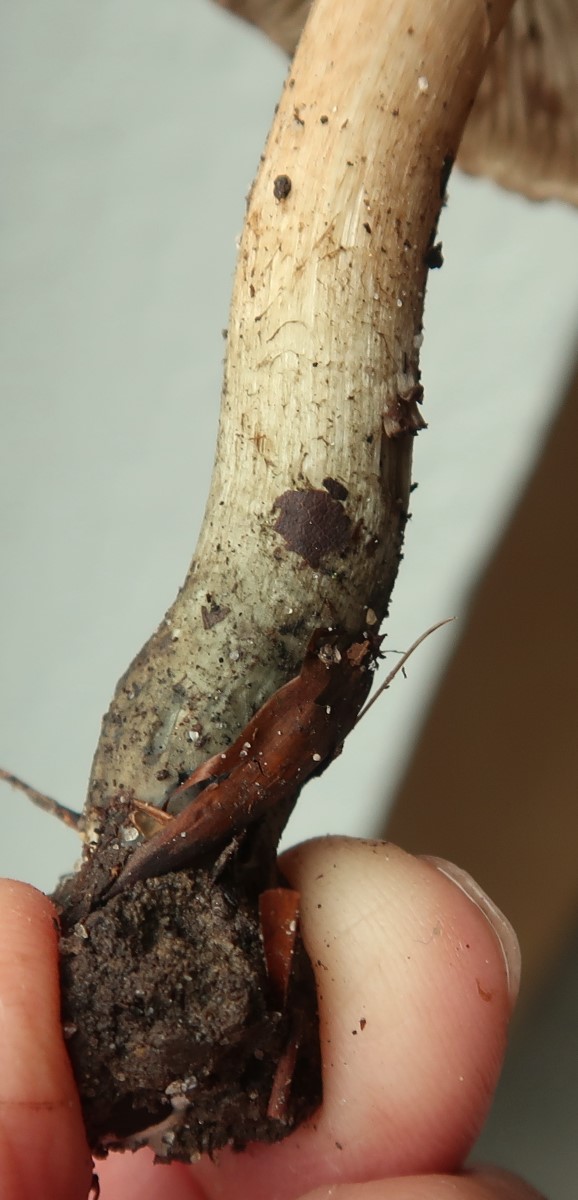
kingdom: Fungi
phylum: Basidiomycota
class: Agaricomycetes
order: Agaricales
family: Inocybaceae
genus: Inocybe
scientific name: Inocybe haemacta
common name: blågrøn trævlhat
